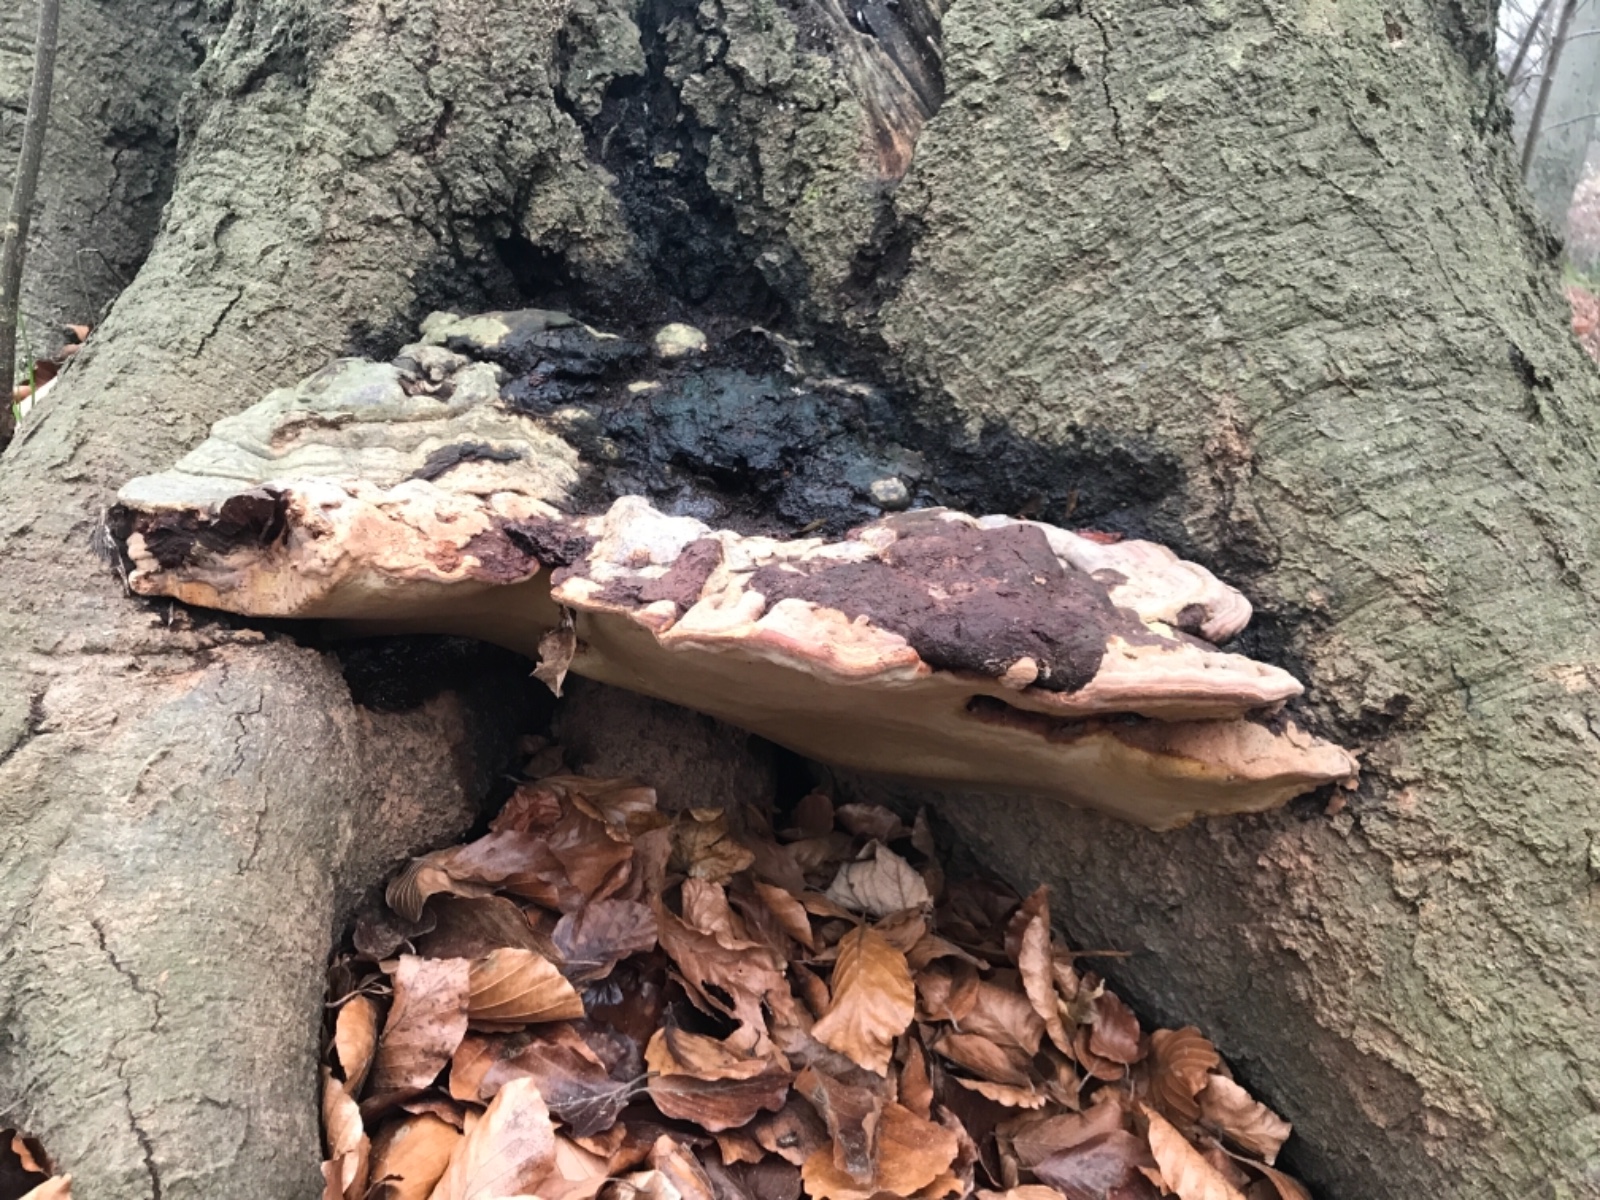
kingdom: Fungi
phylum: Basidiomycota
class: Agaricomycetes
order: Polyporales
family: Polyporaceae
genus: Ganoderma
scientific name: Ganoderma pfeifferi
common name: kobberrød lakporesvamp
